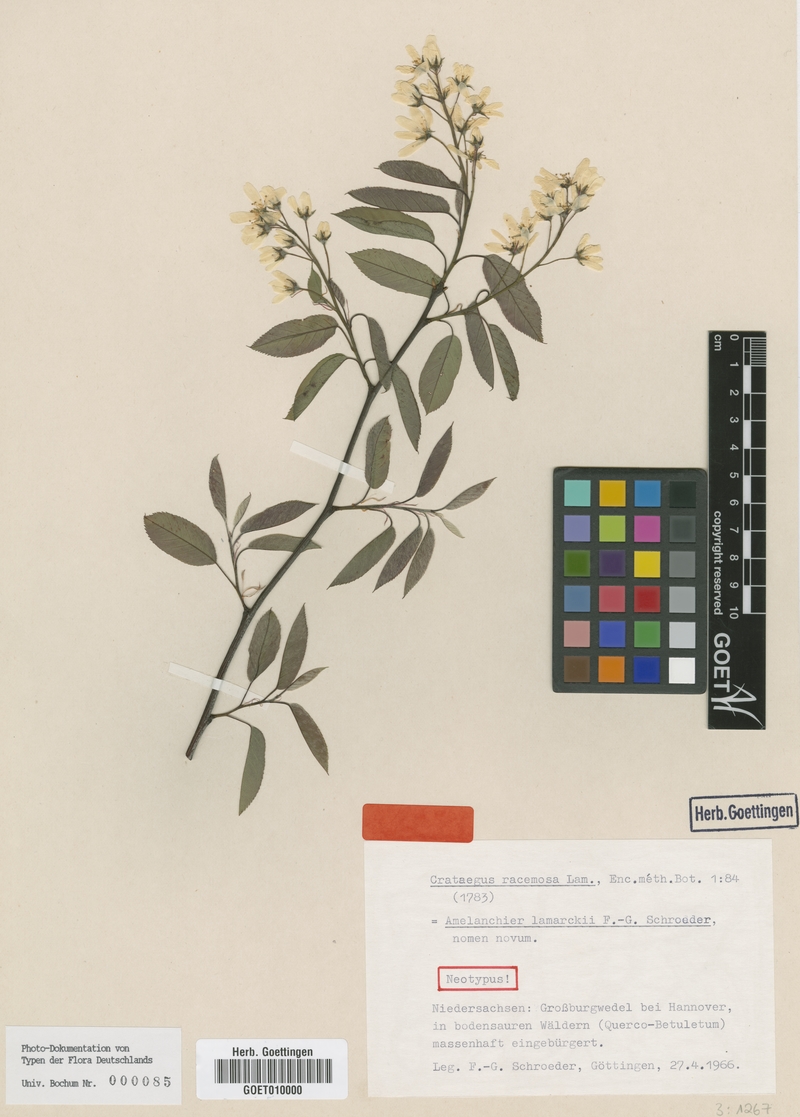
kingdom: Plantae
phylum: Tracheophyta
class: Magnoliopsida
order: Rosales
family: Rosaceae
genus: Amelanchier
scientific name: Amelanchier lamarckii
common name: Juneberry
